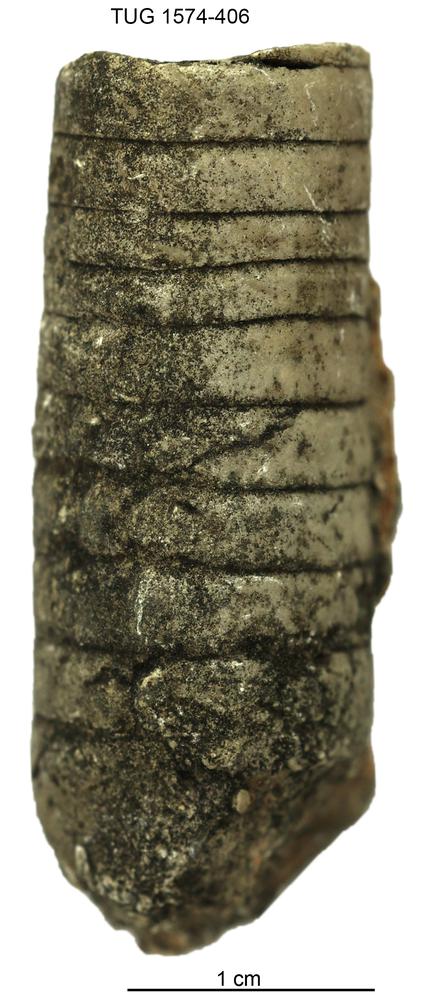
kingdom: Animalia
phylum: Mollusca
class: Cephalopoda
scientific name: Cephalopoda
